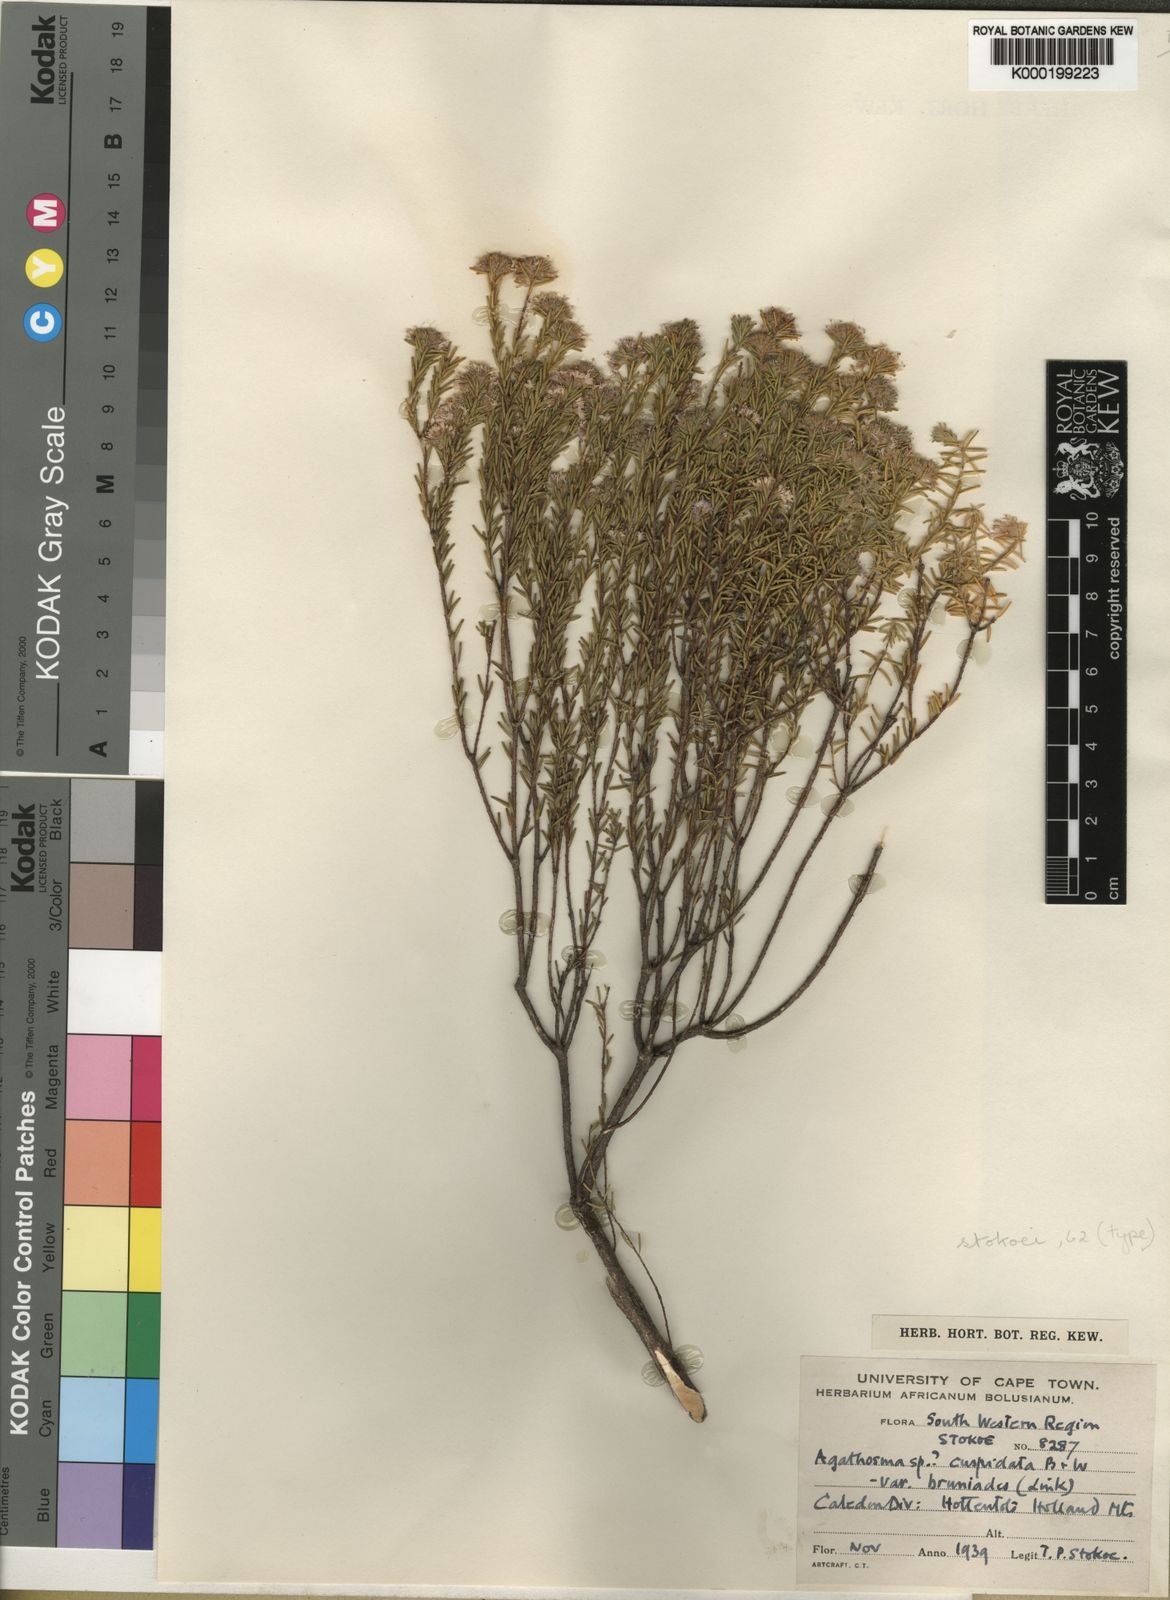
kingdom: Plantae
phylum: Tracheophyta
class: Magnoliopsida
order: Sapindales
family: Rutaceae
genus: Agathosma
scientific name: Agathosma stokoei
